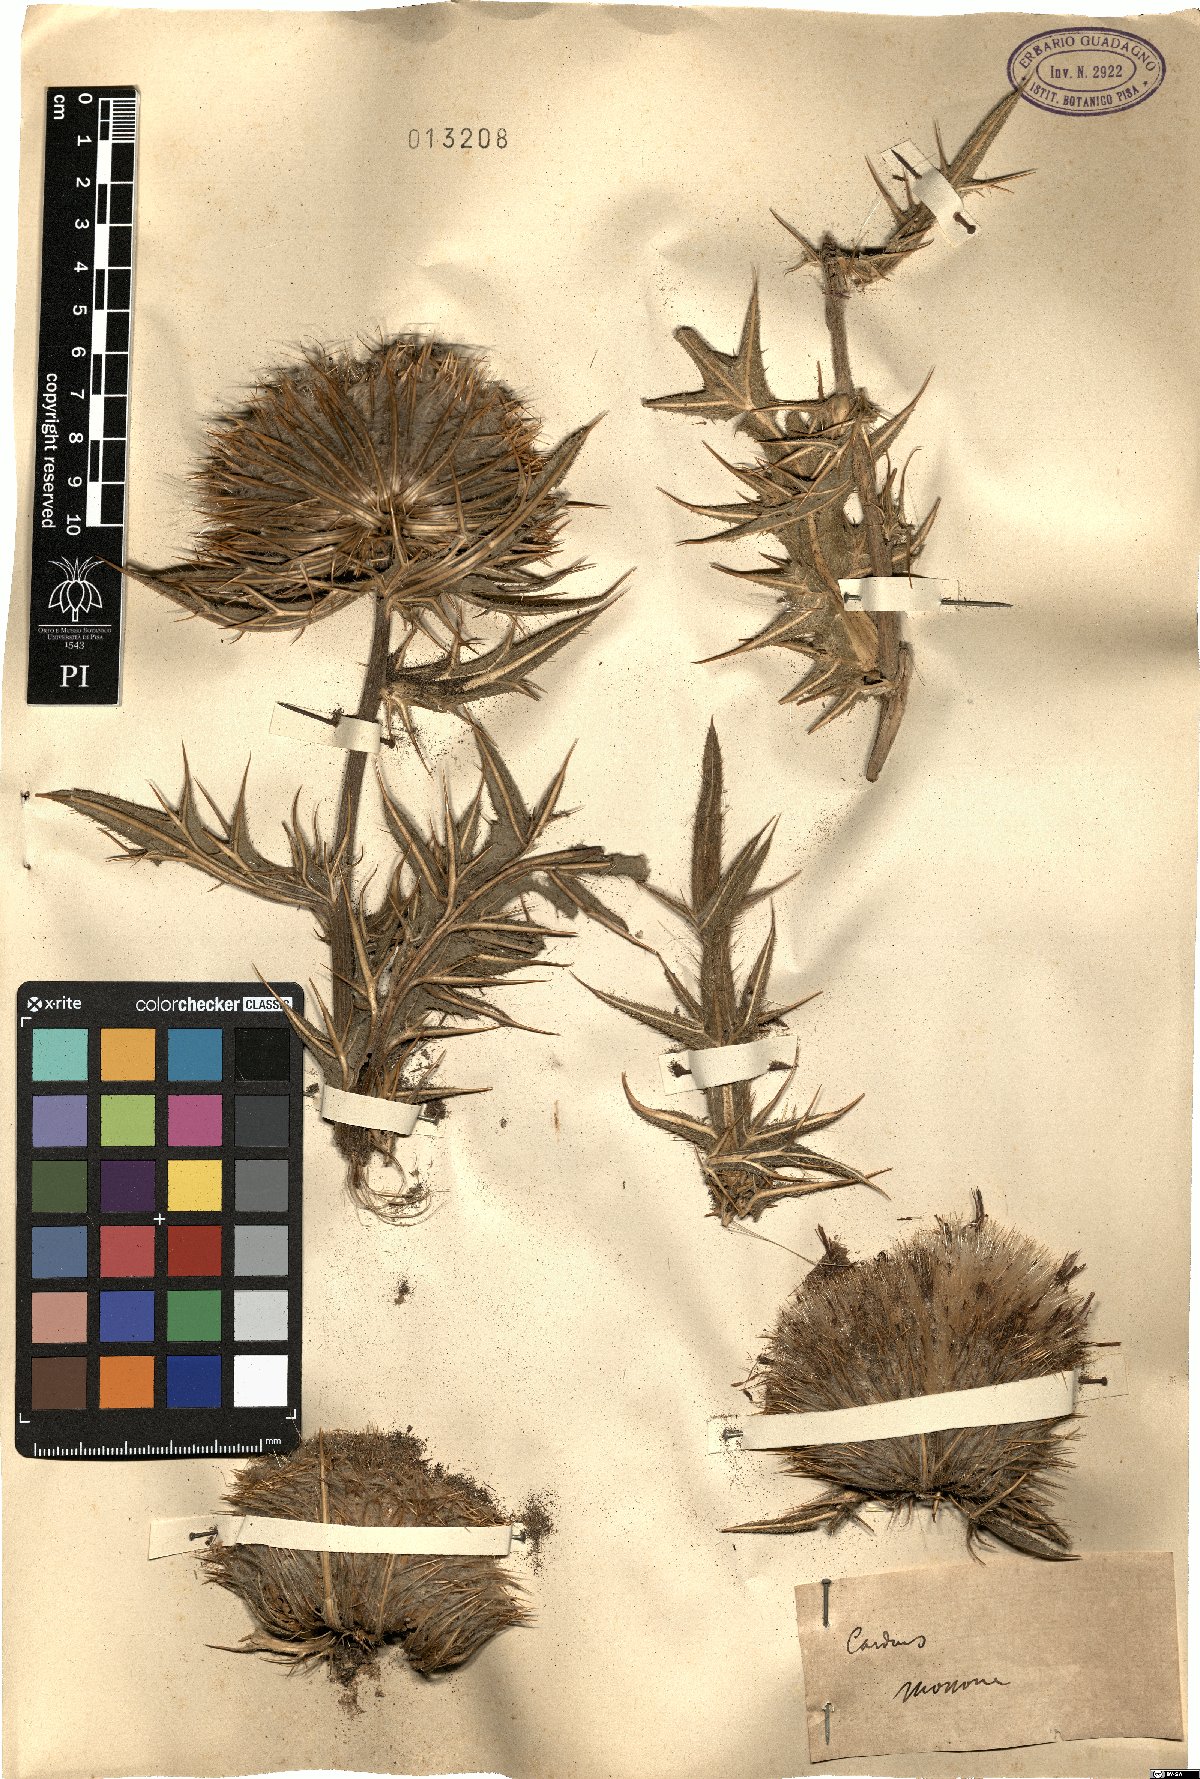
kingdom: Plantae
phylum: Tracheophyta
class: Magnoliopsida
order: Asterales
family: Asteraceae
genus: Carduus
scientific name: Carduus
